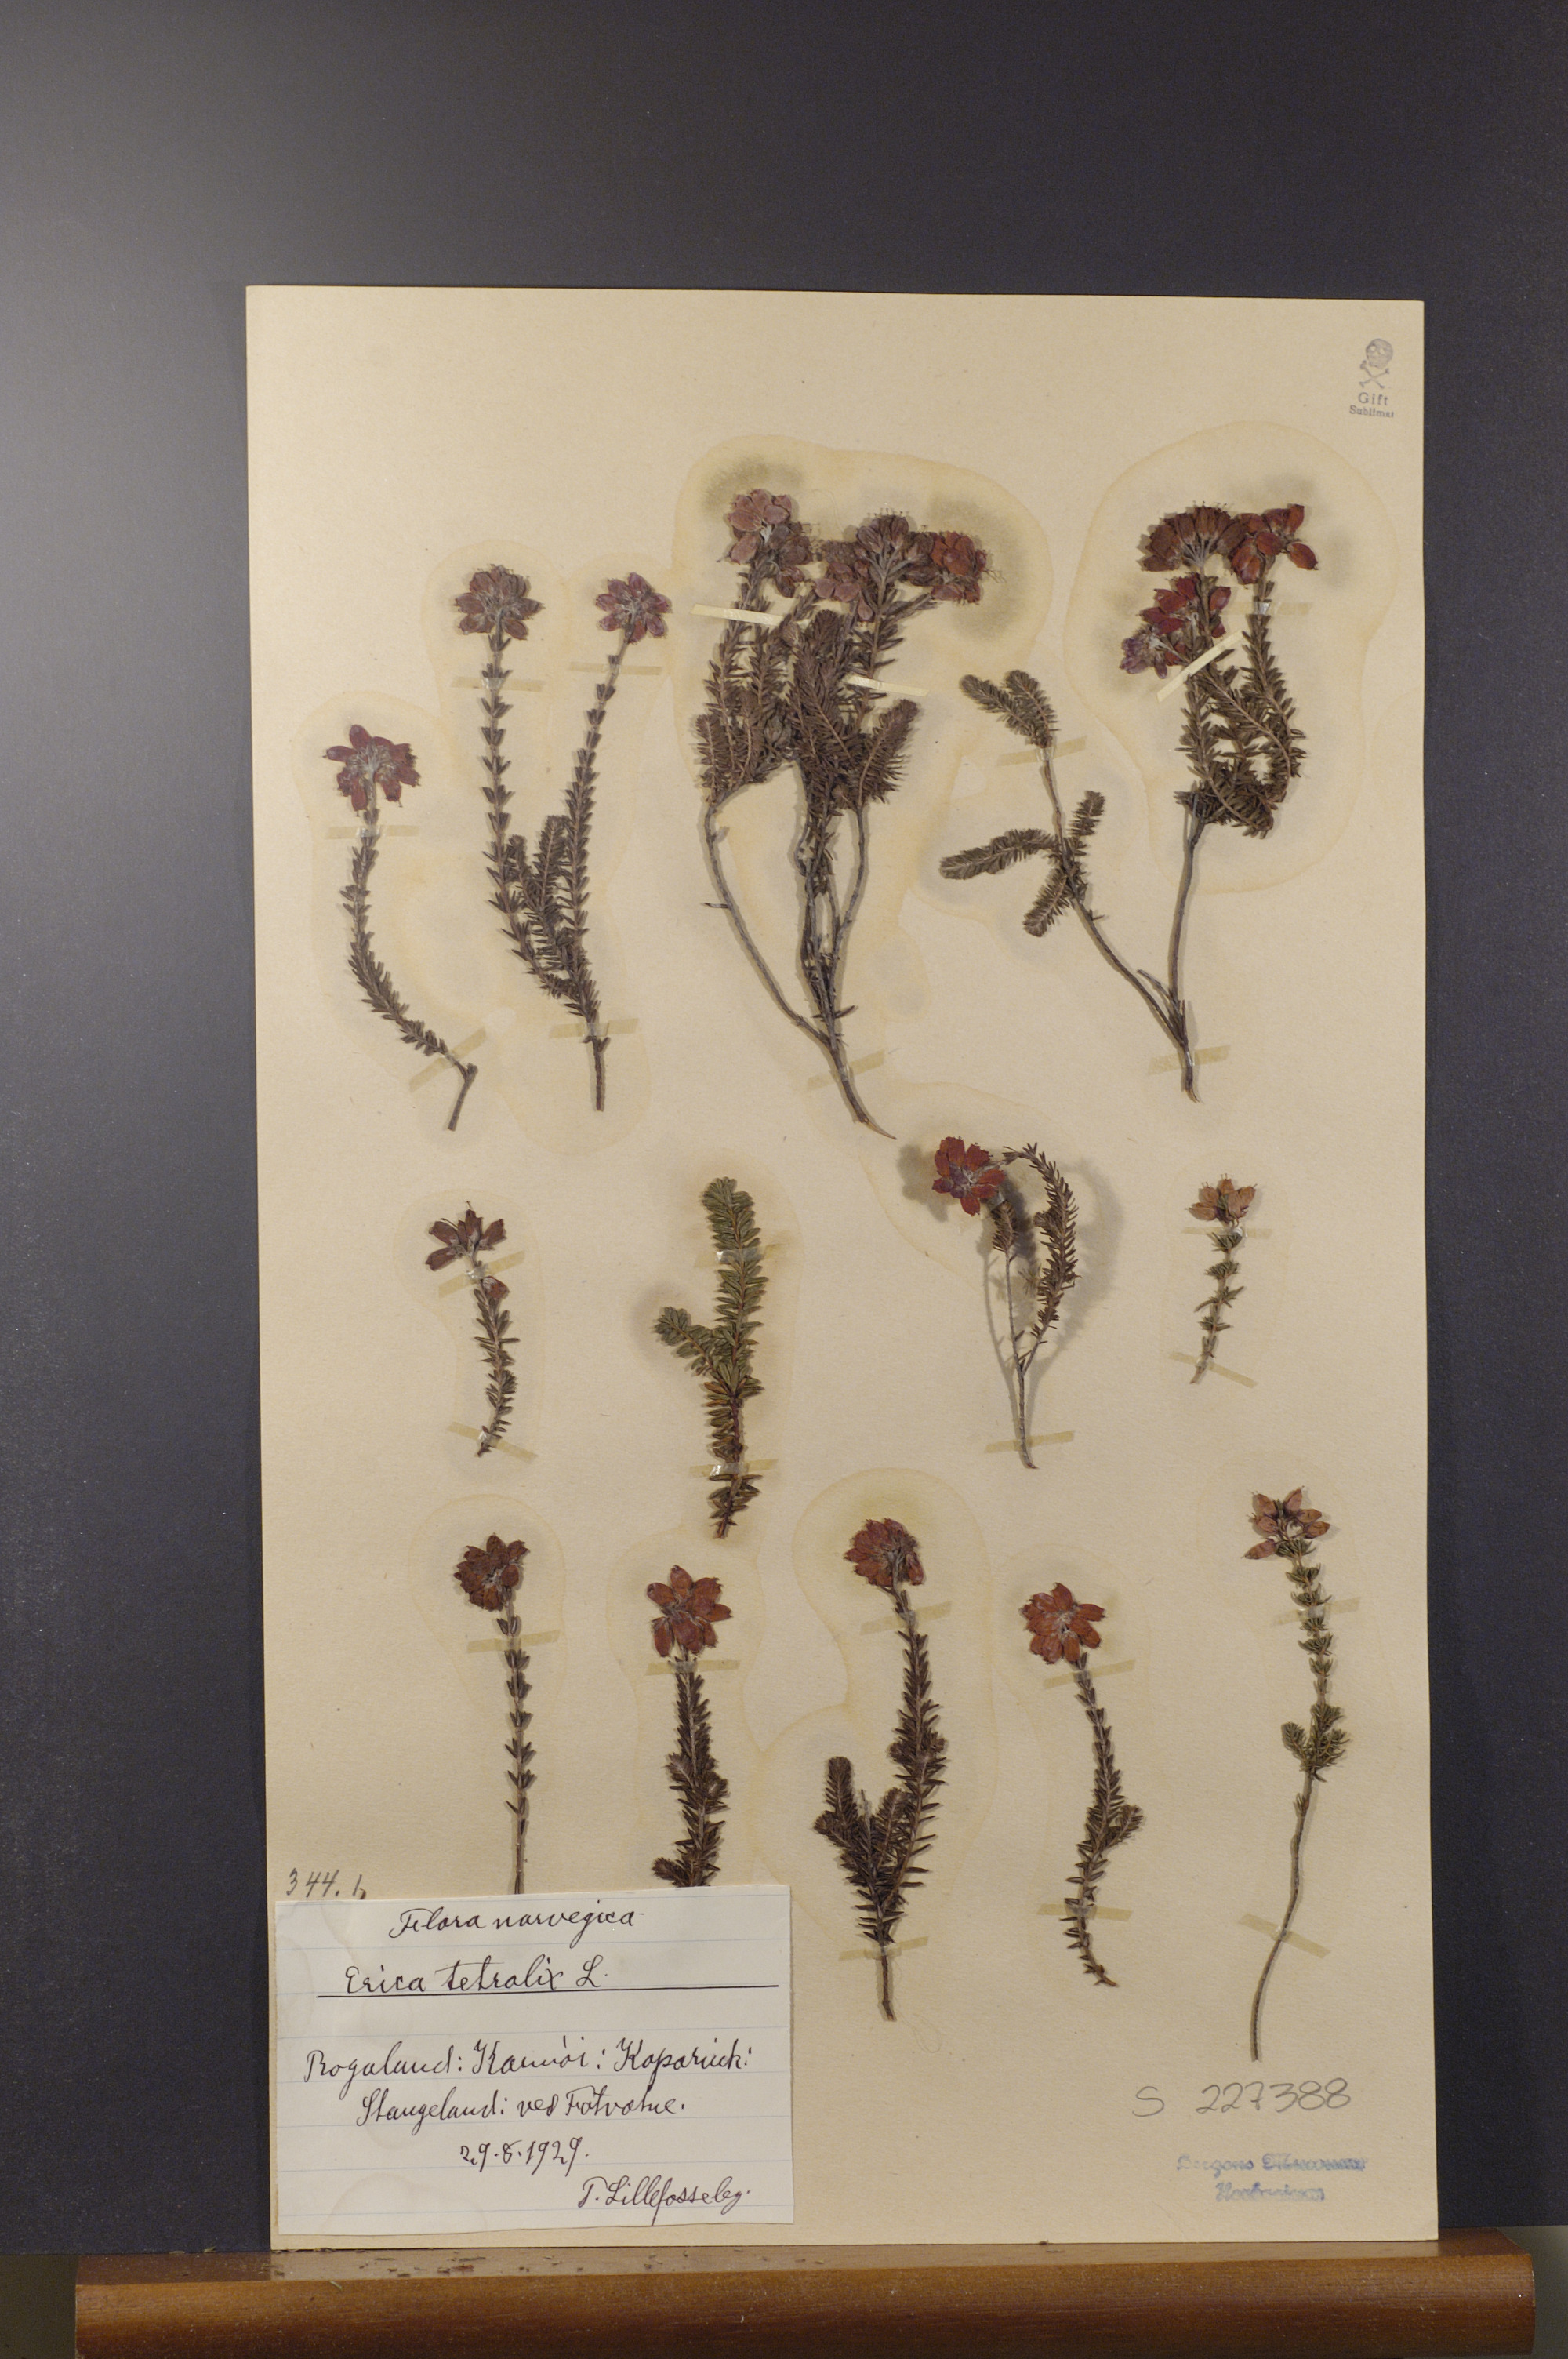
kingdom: Plantae
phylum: Tracheophyta
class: Magnoliopsida
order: Ericales
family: Ericaceae
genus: Erica
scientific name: Erica tetralix
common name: Cross-leaved heath
